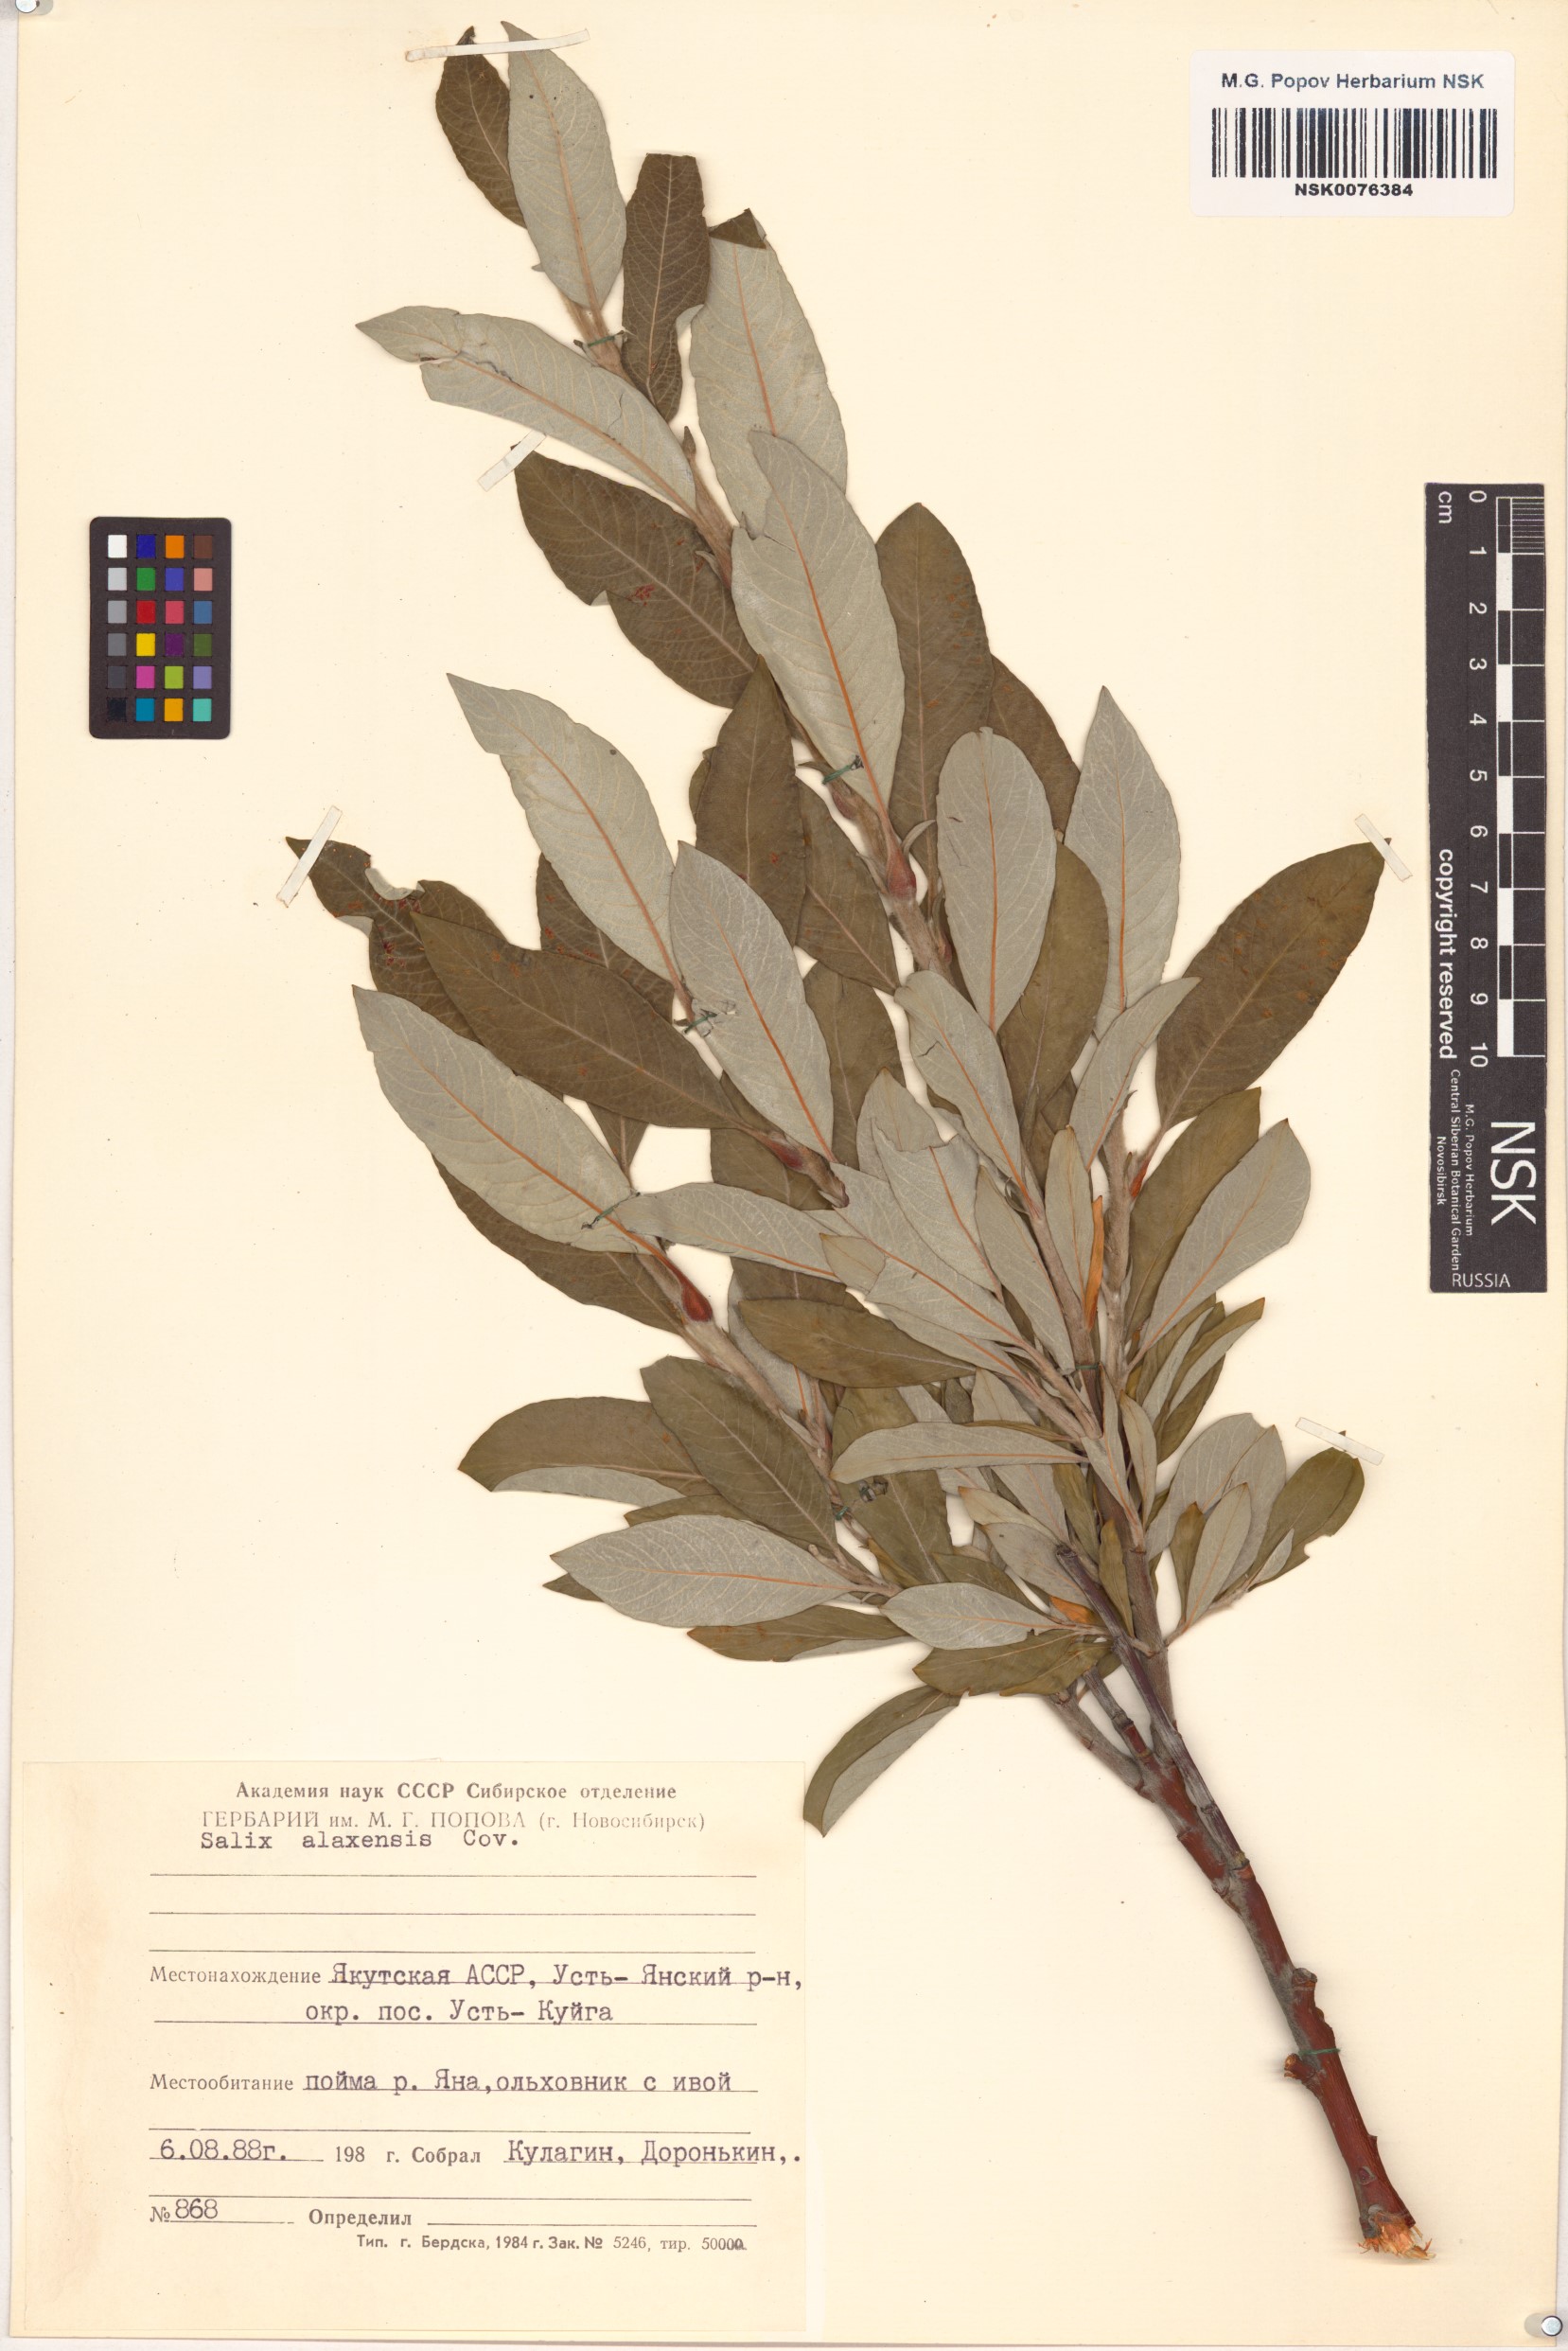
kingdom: Plantae
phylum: Tracheophyta
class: Magnoliopsida
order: Malpighiales
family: Salicaceae
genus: Salix
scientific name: Salix alaxensis
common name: Feltleaf willow
